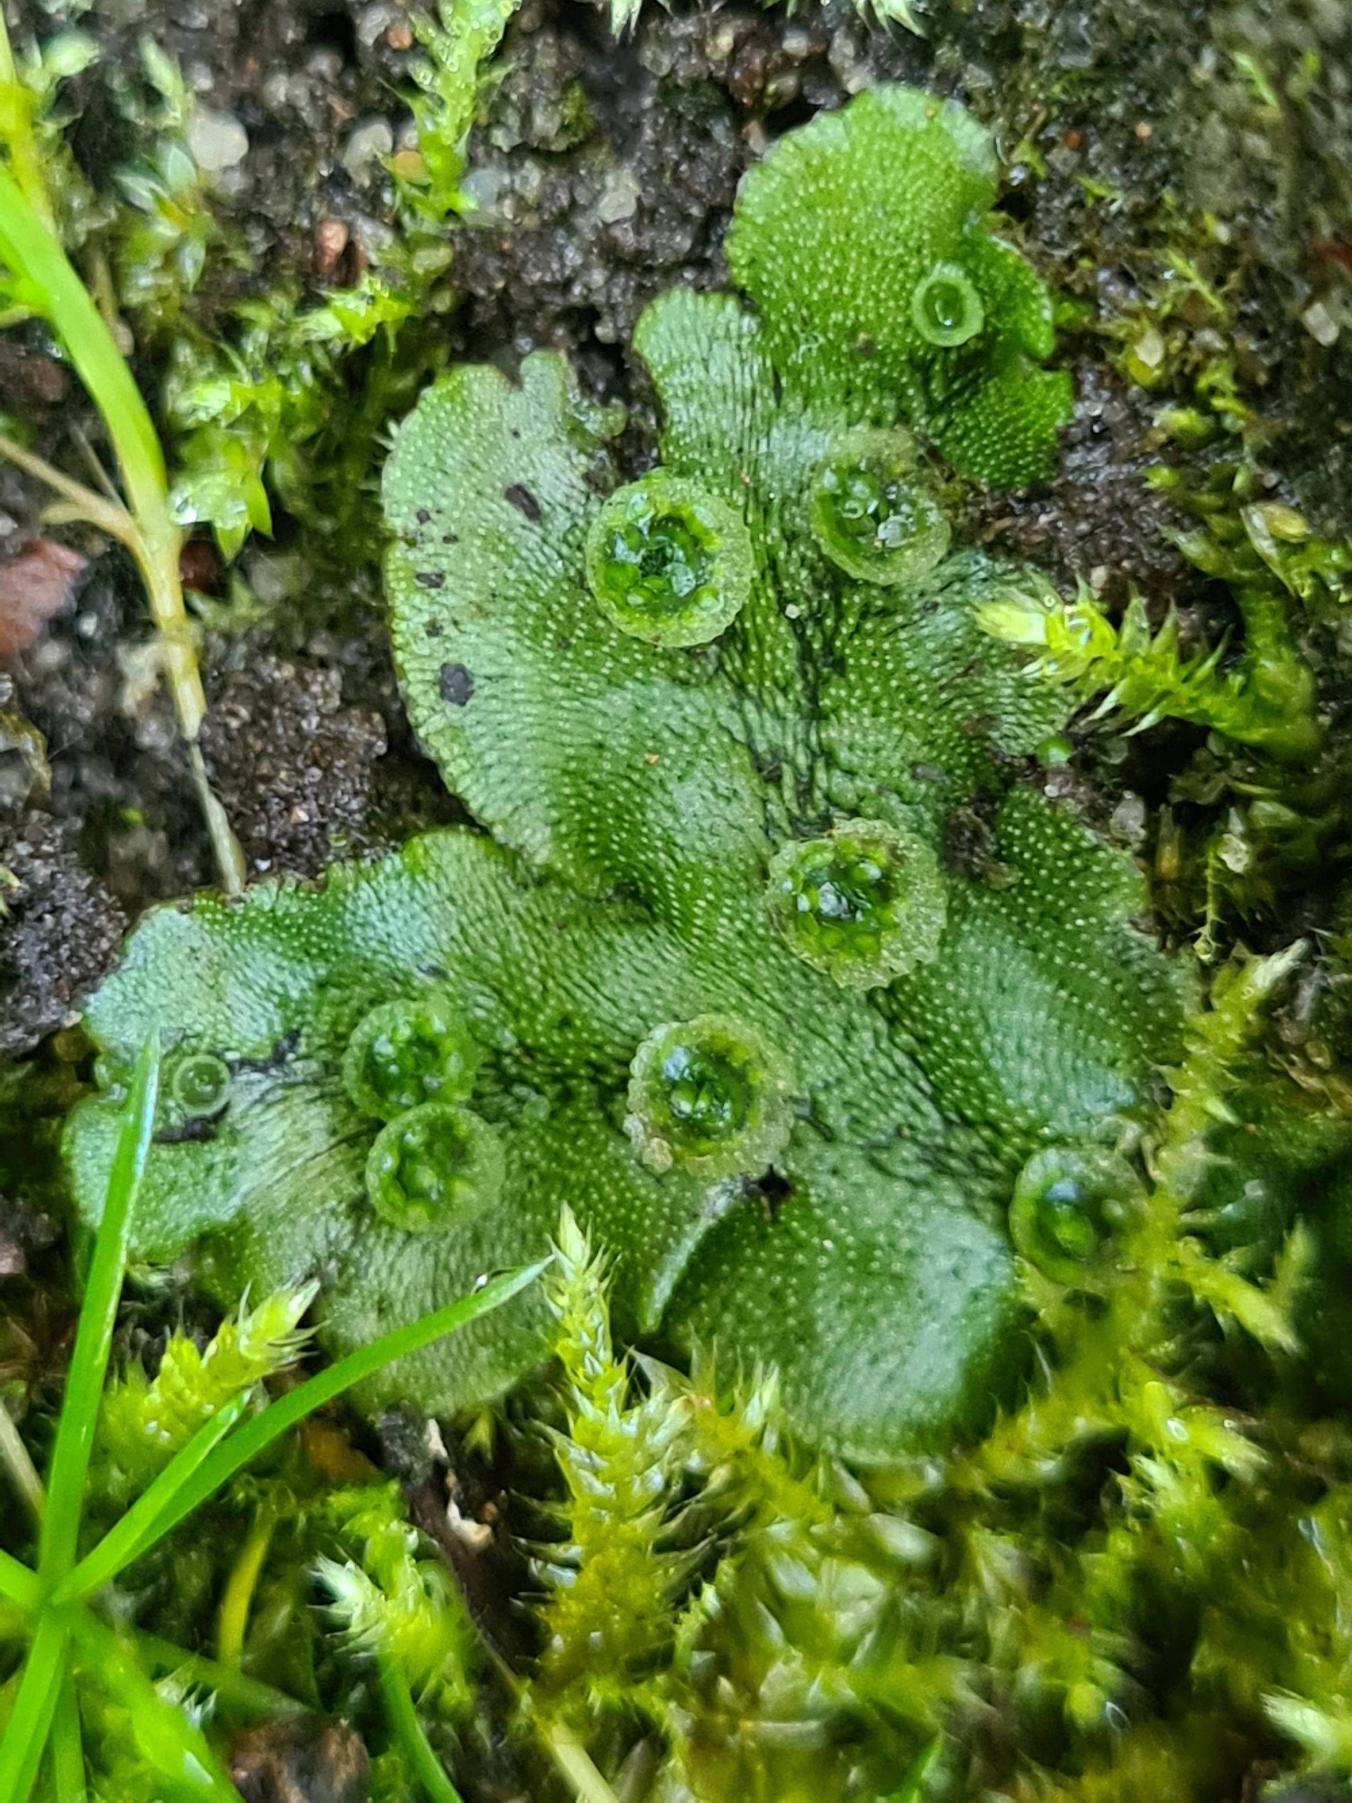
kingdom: Plantae
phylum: Marchantiophyta
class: Marchantiopsida
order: Marchantiales
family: Marchantiaceae
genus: Marchantia
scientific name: Marchantia polymorpha
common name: Almindelig lungemos (underart)
